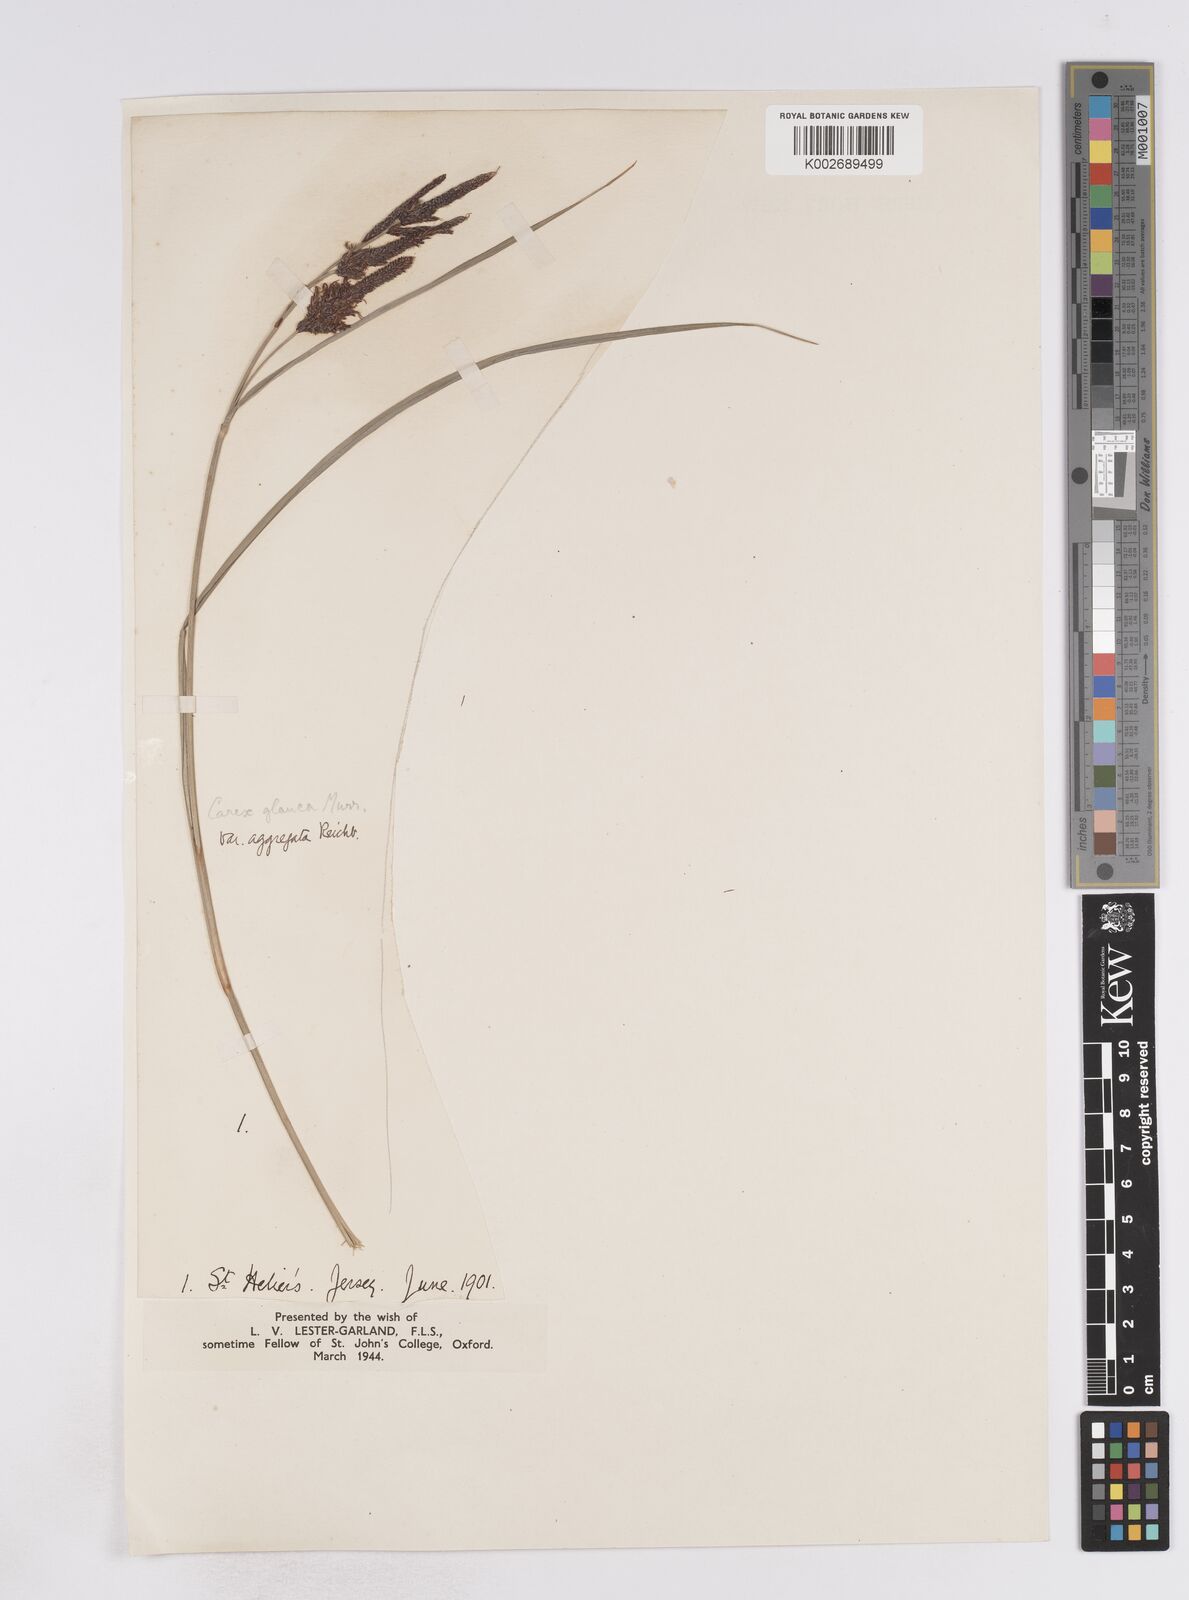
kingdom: Plantae
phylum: Tracheophyta
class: Liliopsida
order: Poales
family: Cyperaceae
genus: Carex
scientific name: Carex flacca
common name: Glaucous sedge
